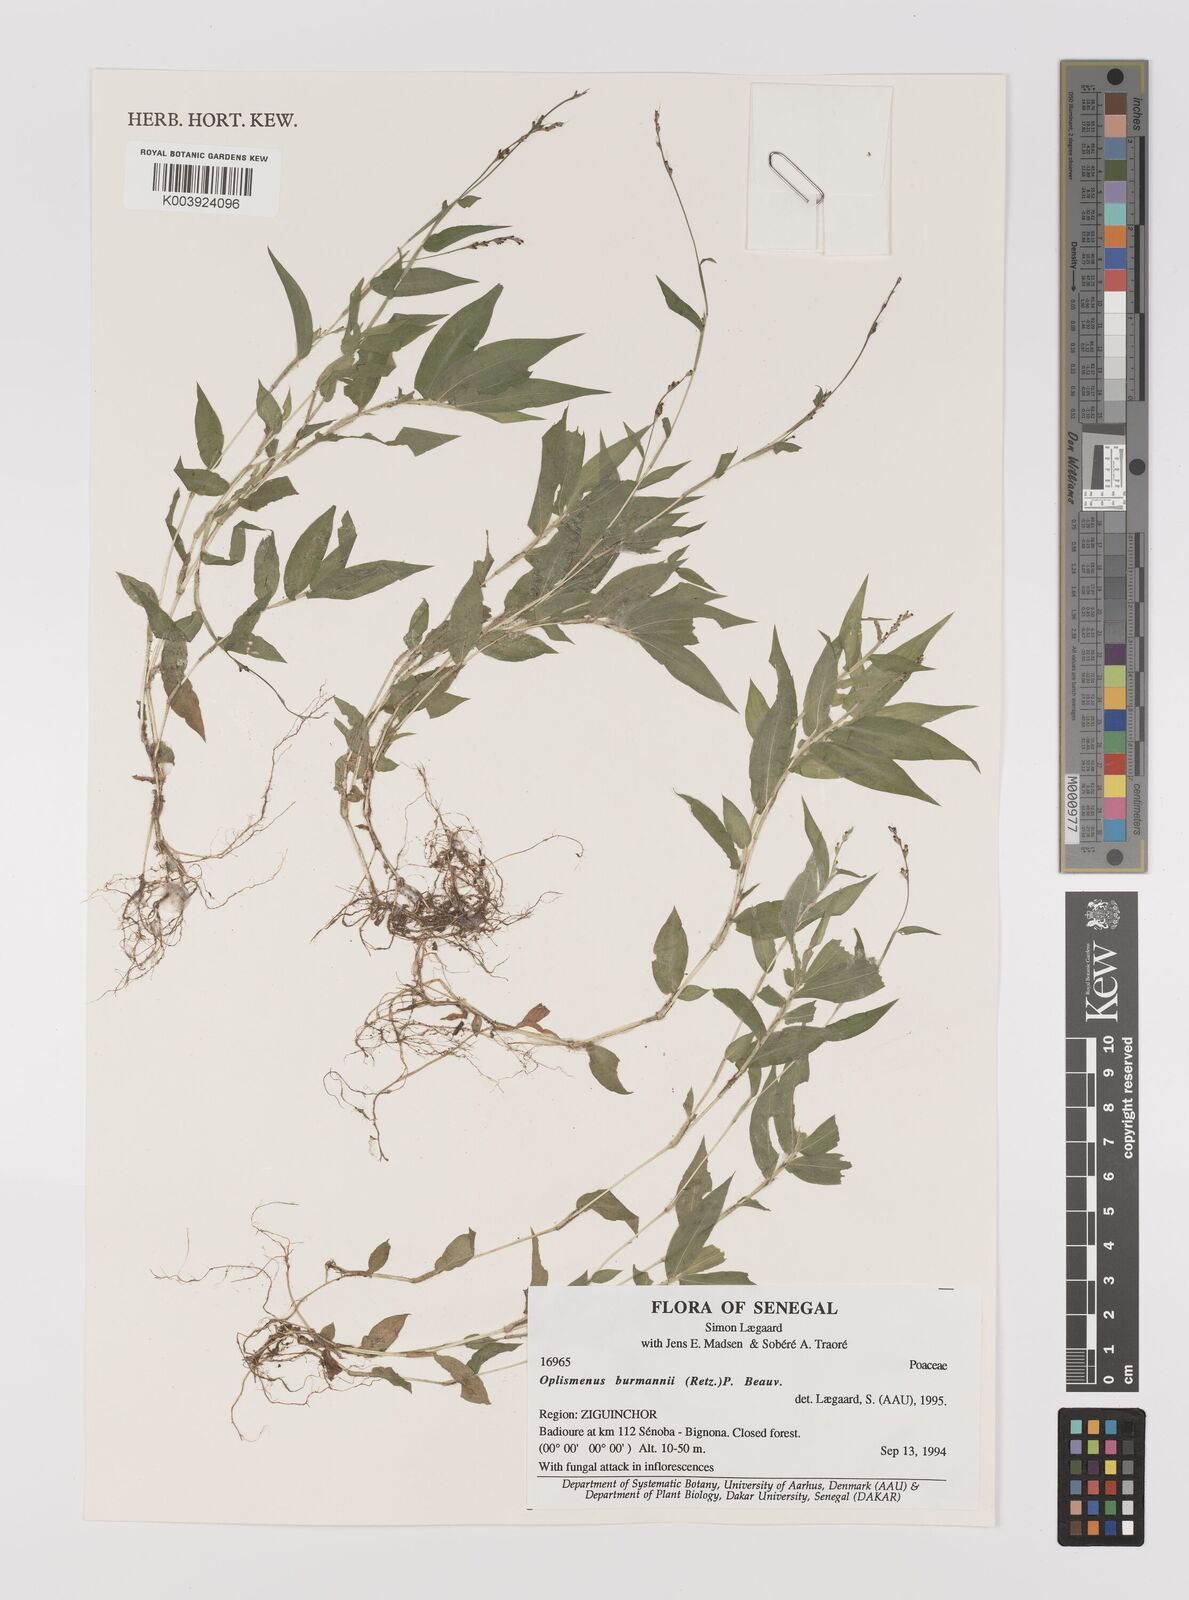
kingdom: Plantae
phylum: Tracheophyta
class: Liliopsida
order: Poales
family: Poaceae
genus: Oplismenus
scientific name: Oplismenus burmanni
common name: Burmann's basketgrass
